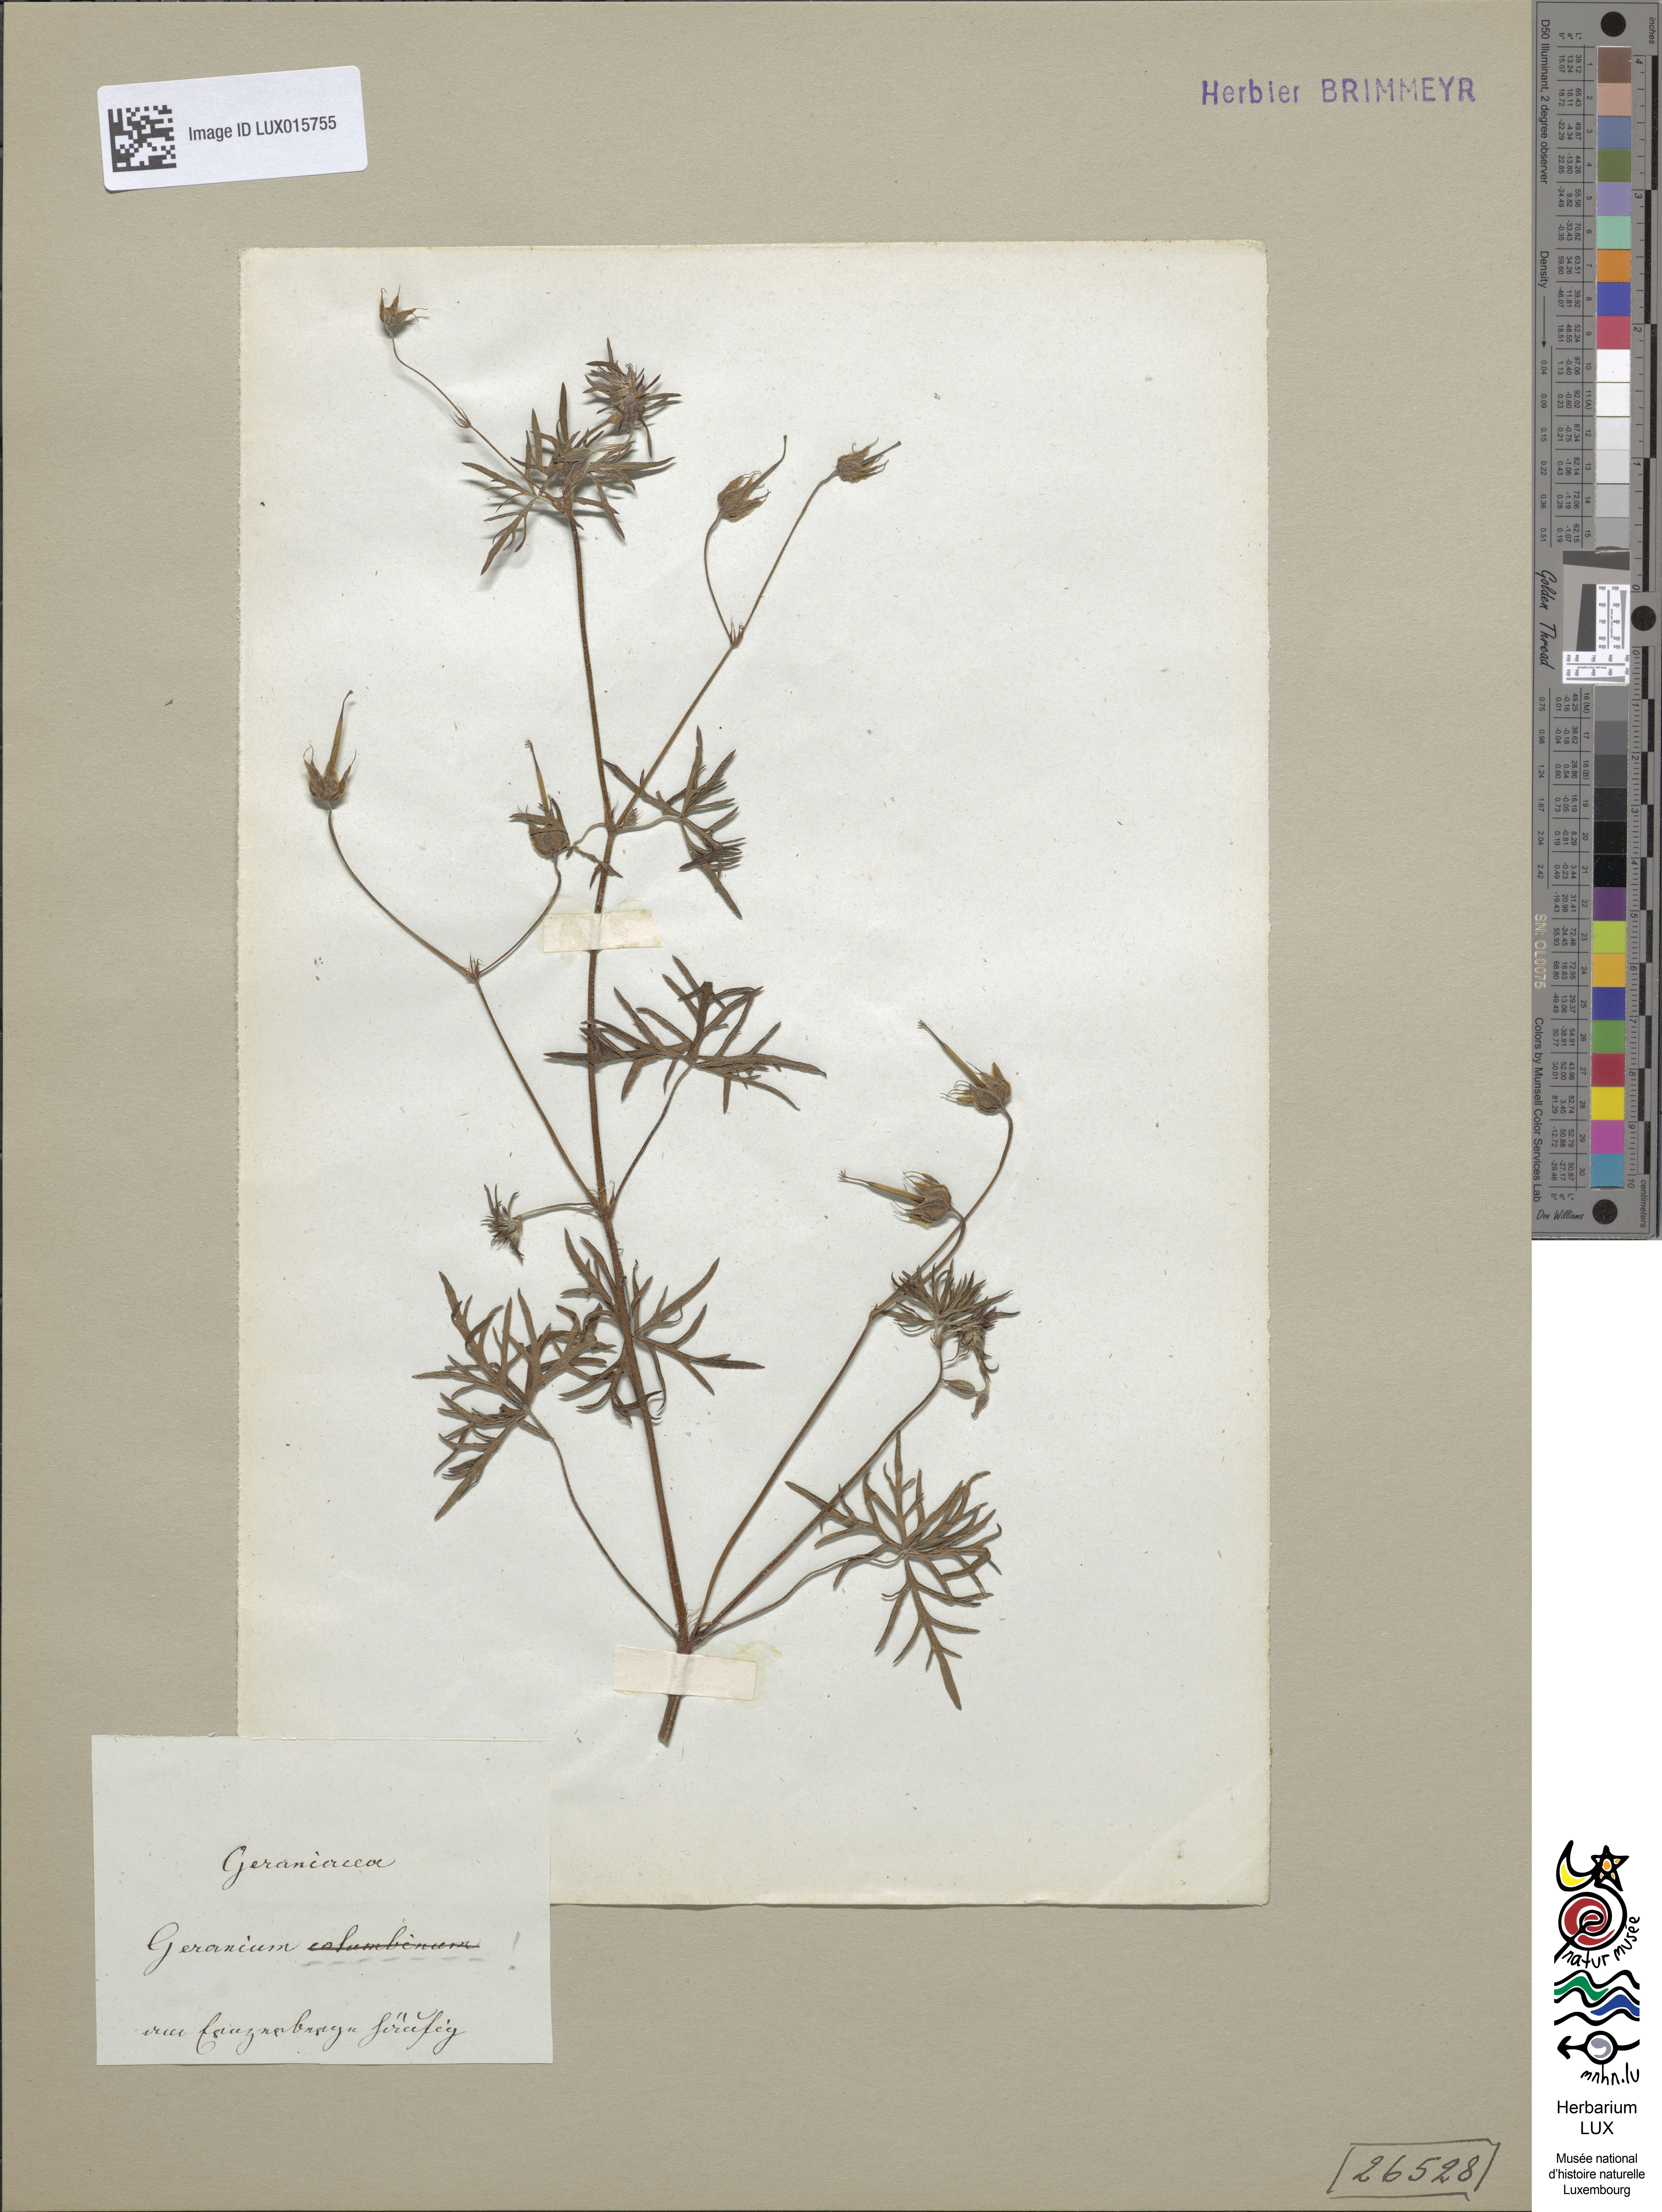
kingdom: Plantae
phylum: Tracheophyta
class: Magnoliopsida
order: Geraniales
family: Geraniaceae
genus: Geranium
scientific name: Geranium columbinum
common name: Long-stalked crane's-bill
